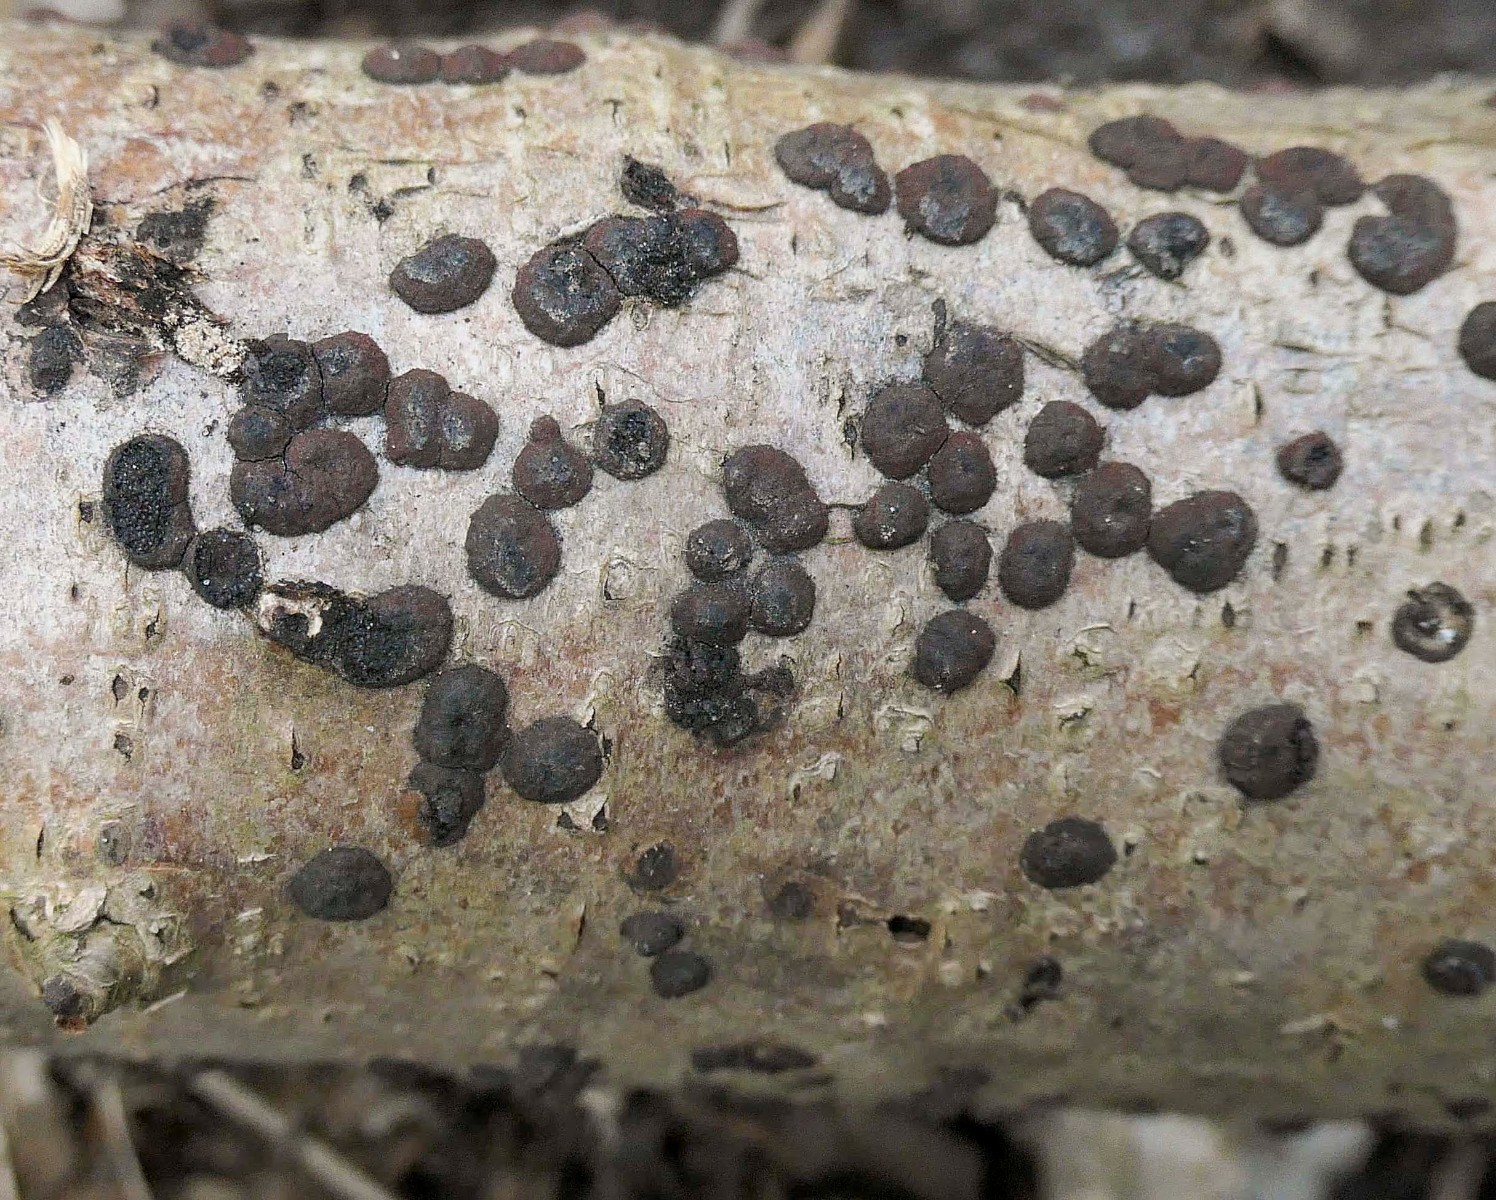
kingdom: Fungi
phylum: Ascomycota
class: Sordariomycetes
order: Xylariales
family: Hypoxylaceae
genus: Hypoxylon
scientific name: Hypoxylon fuscum
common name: kegleformet kulbær
